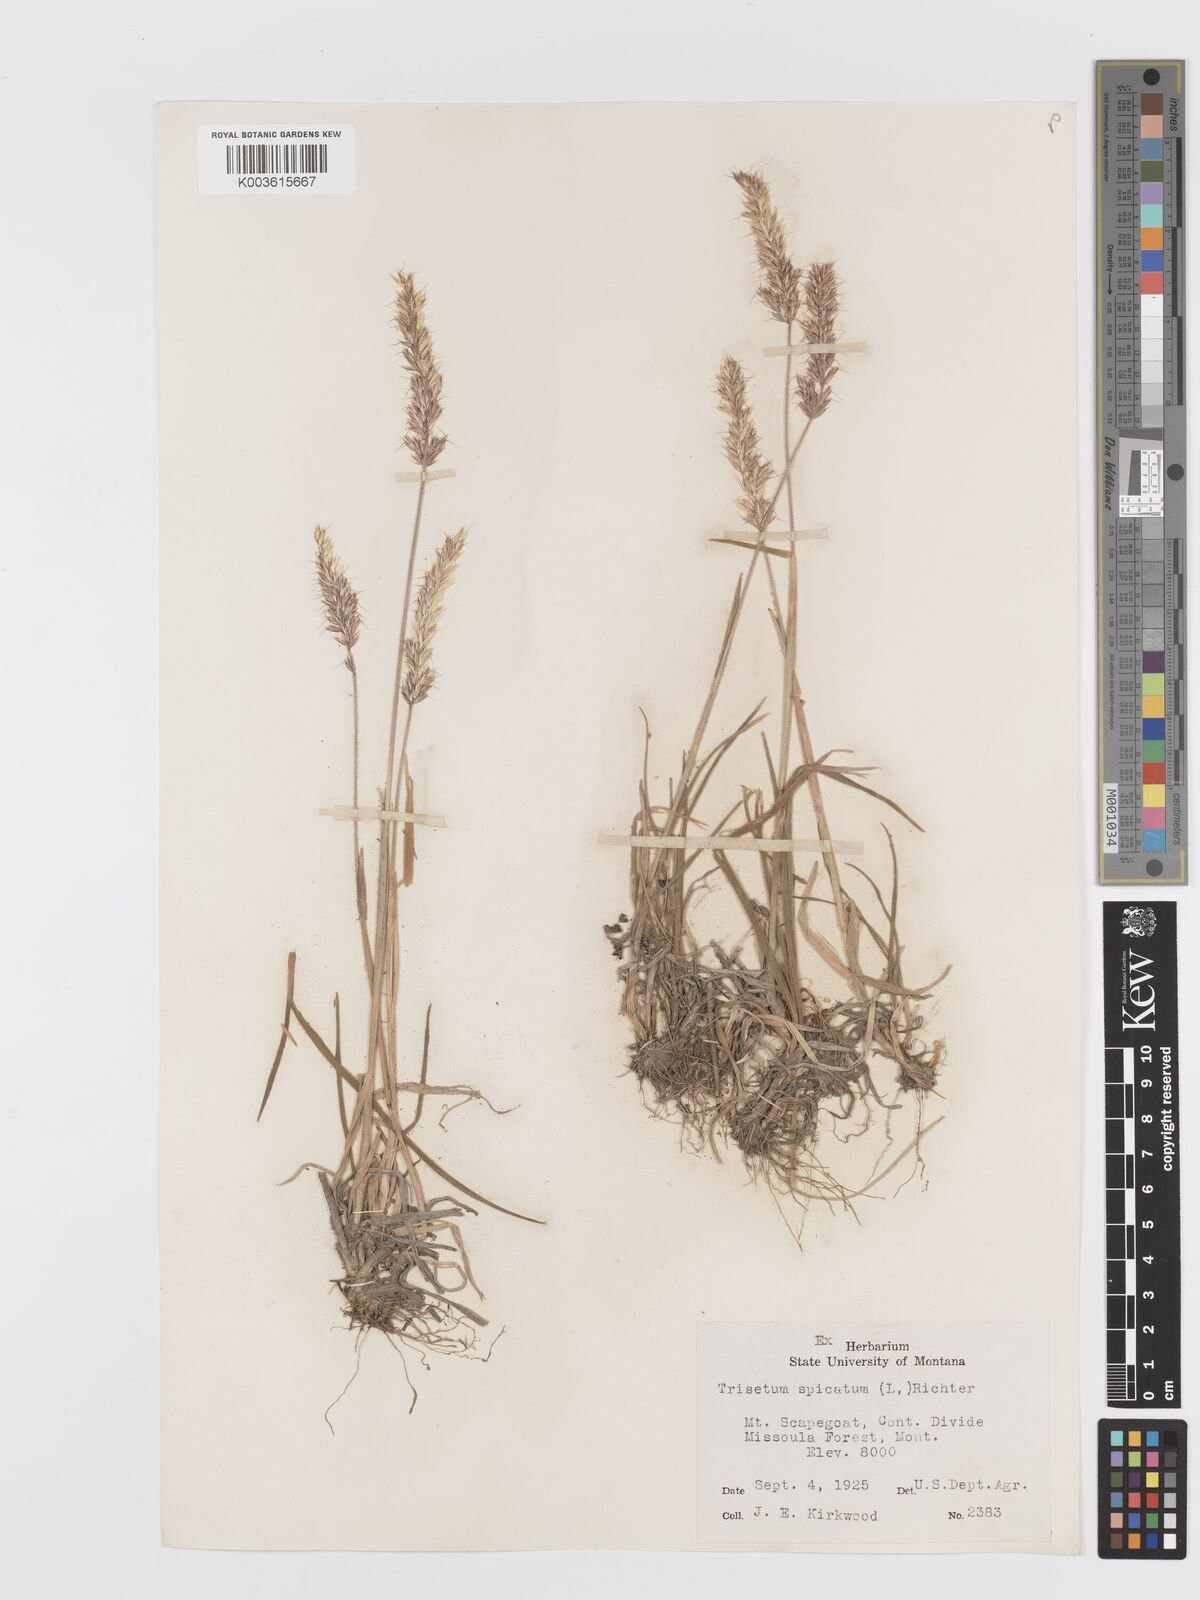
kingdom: Plantae
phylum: Tracheophyta
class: Liliopsida
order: Poales
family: Poaceae
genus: Koeleria
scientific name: Koeleria spicata
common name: Mountain trisetum
